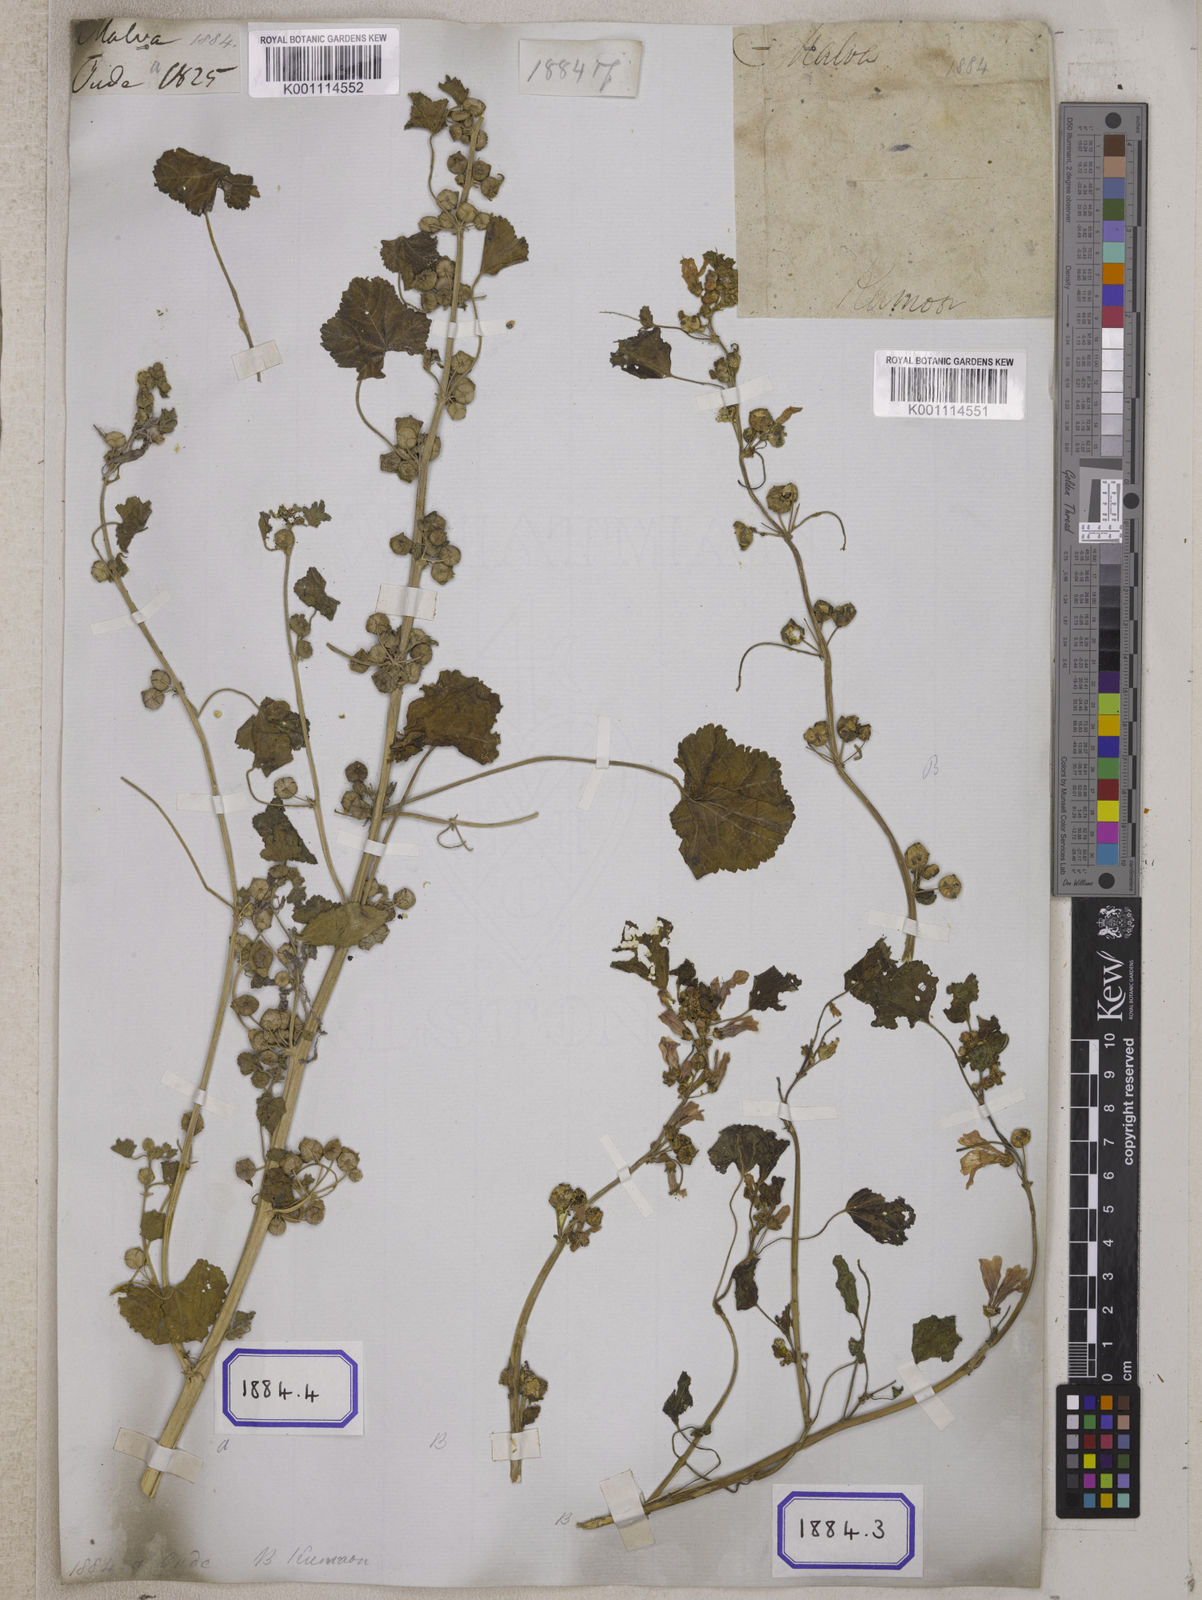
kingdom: Plantae
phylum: Tracheophyta
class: Magnoliopsida
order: Malvales
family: Malvaceae
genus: Malva
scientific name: Malva pusilla
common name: Small mallow
